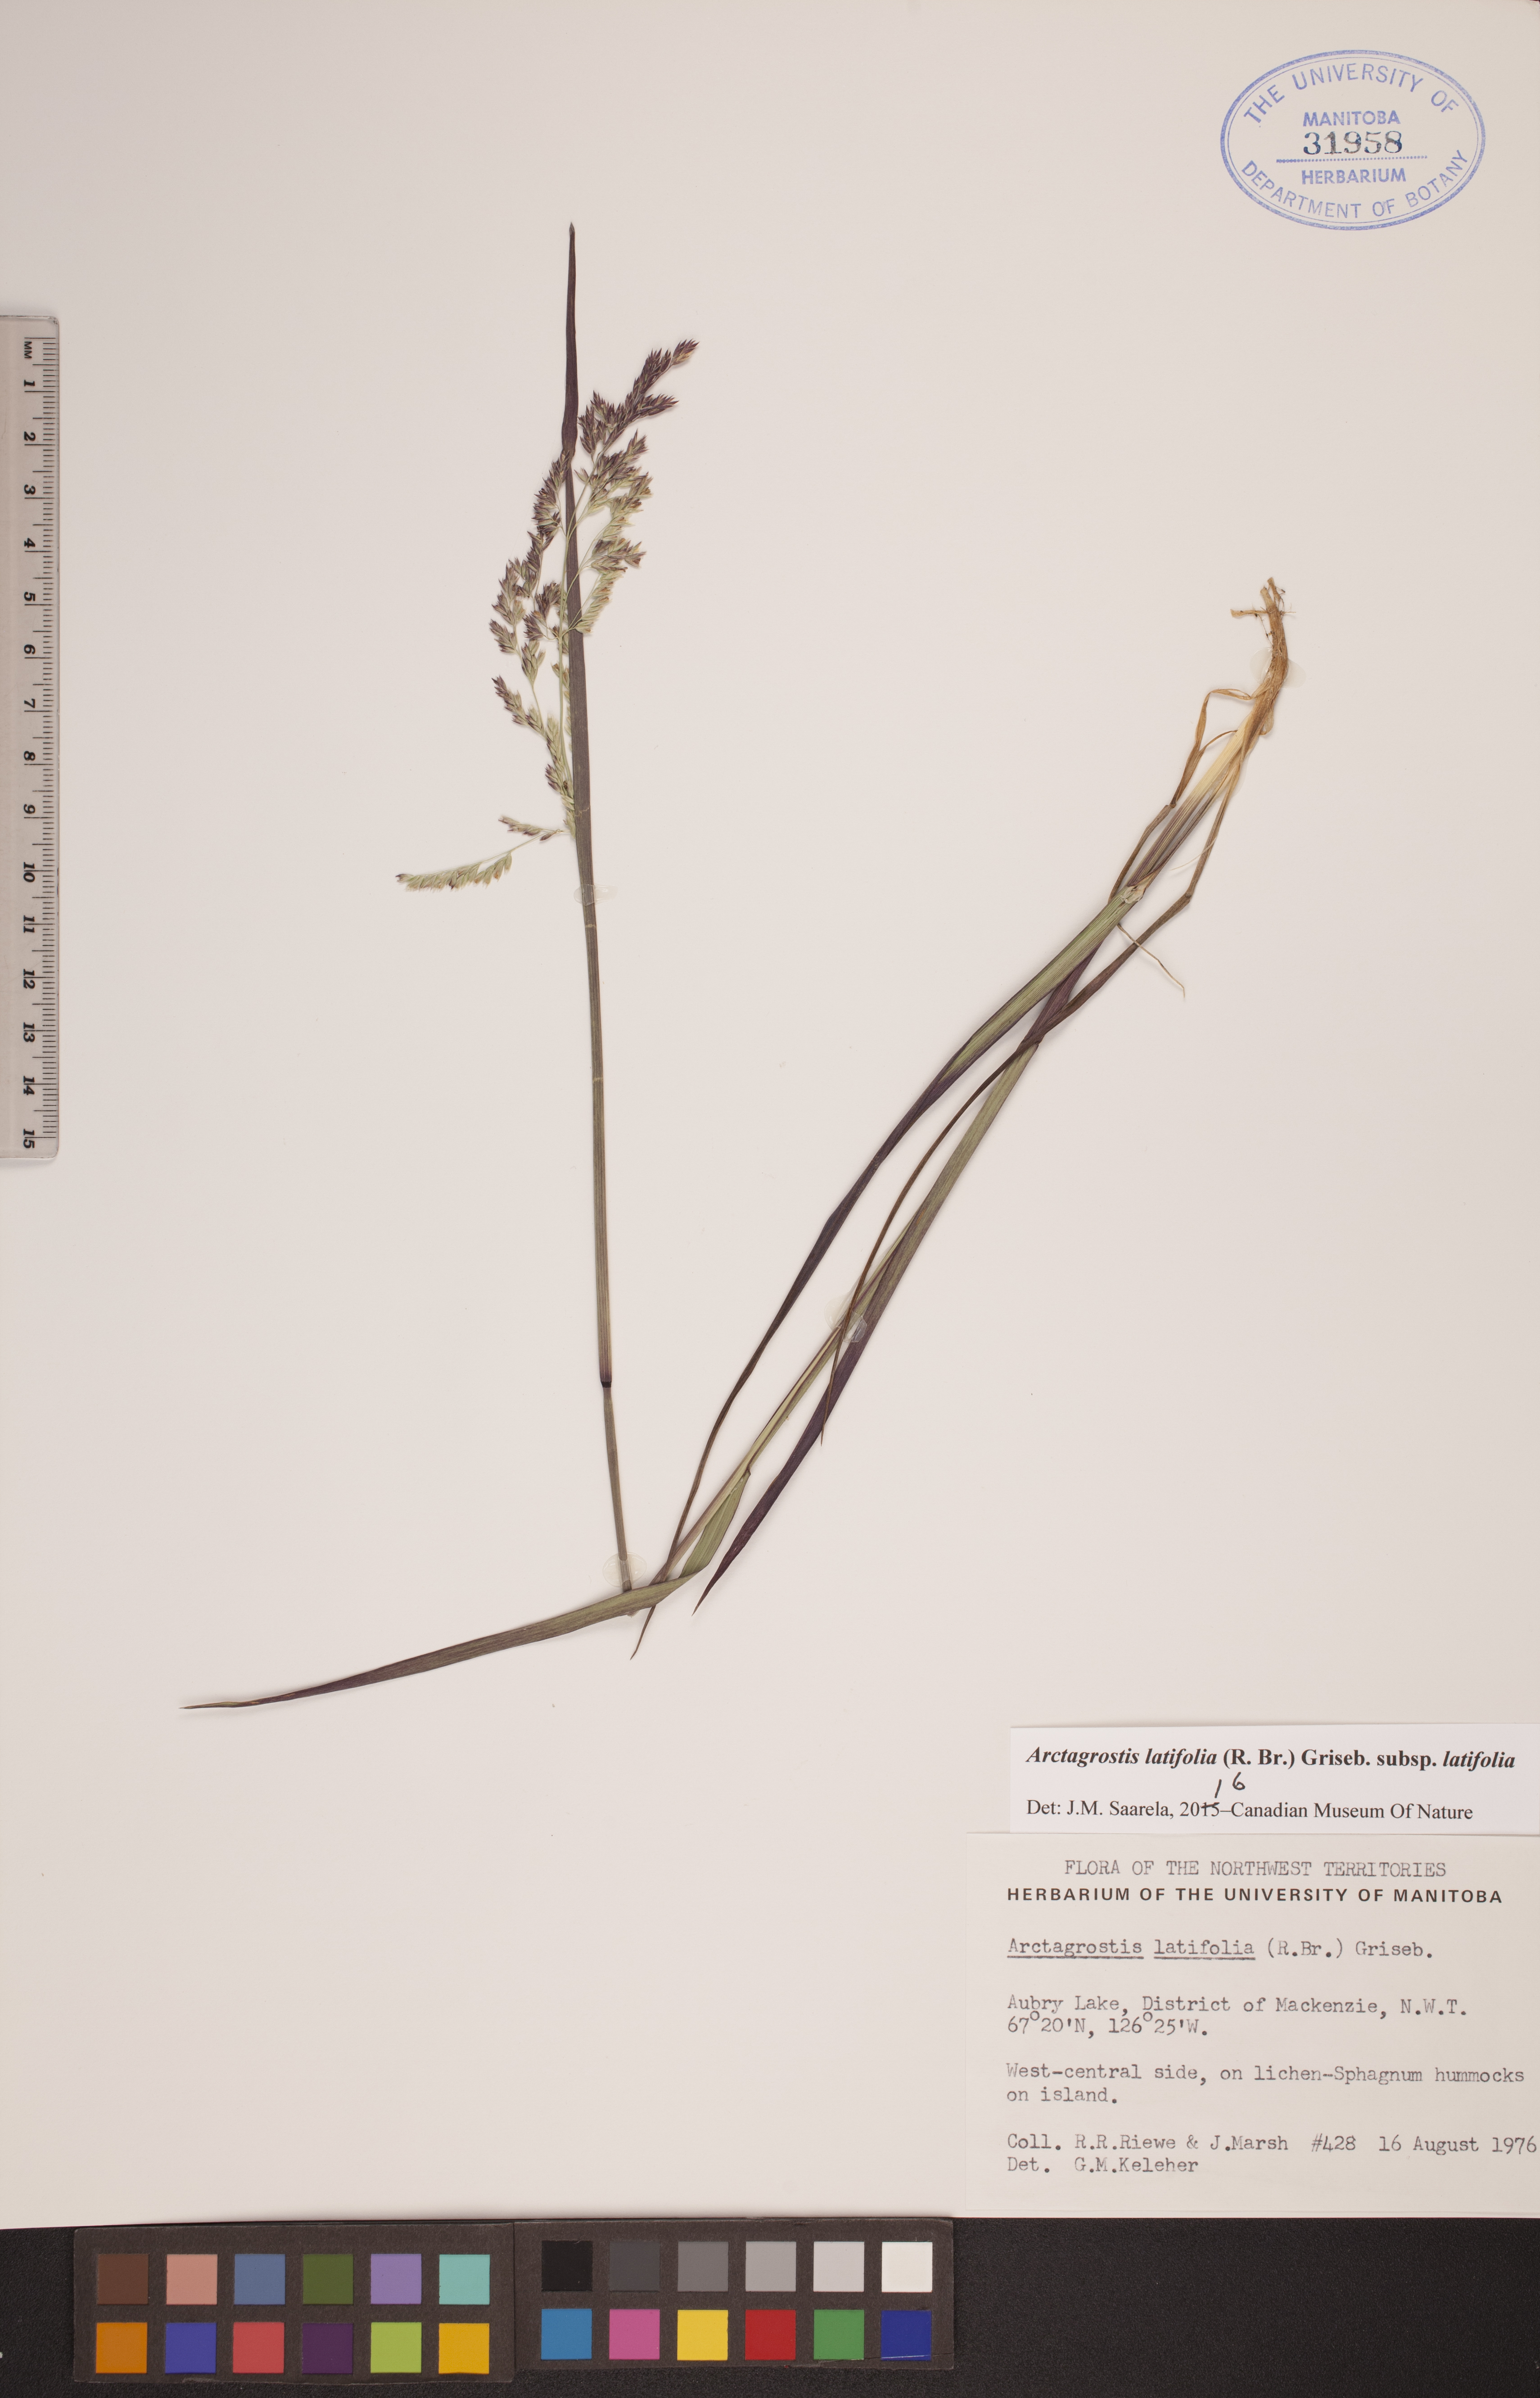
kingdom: Plantae
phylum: Tracheophyta
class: Liliopsida
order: Poales
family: Poaceae
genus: Arctagrostis
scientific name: Arctagrostis latifolia
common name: Arctic grass
